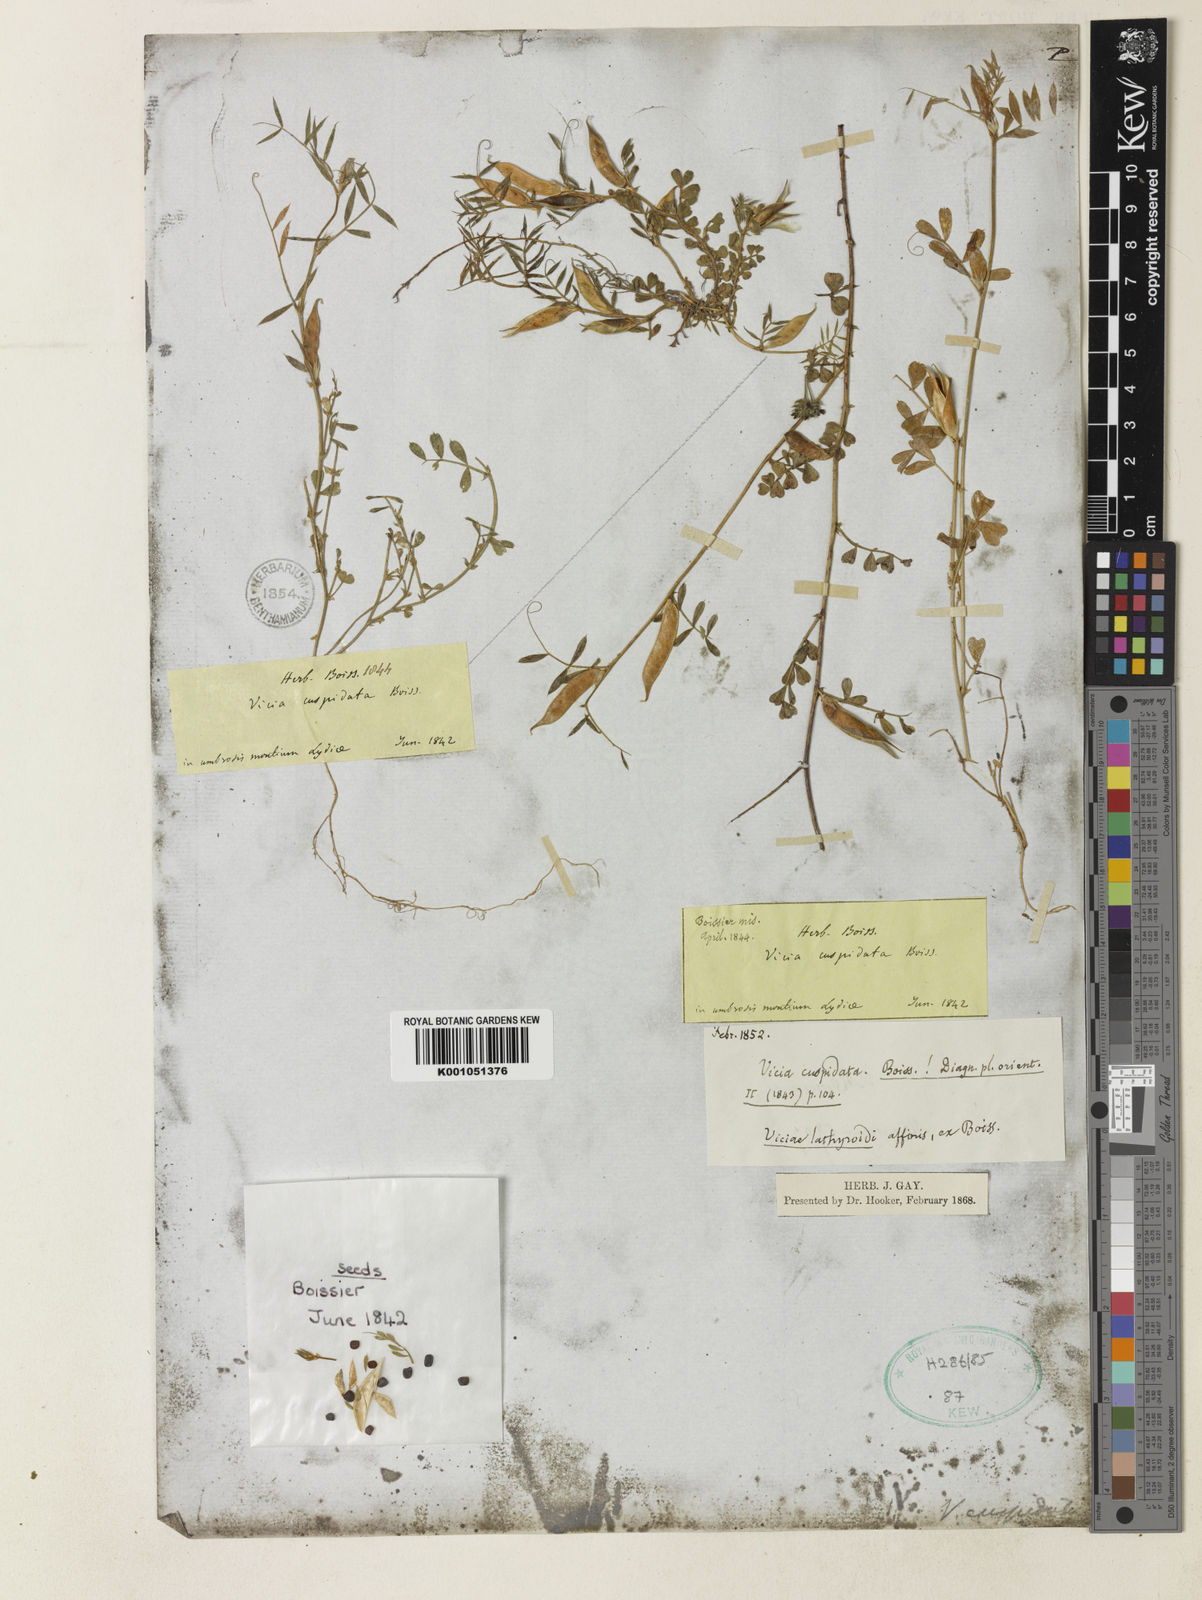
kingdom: Plantae
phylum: Tracheophyta
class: Magnoliopsida
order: Fabales
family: Fabaceae
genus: Vicia
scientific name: Vicia cuspidata
